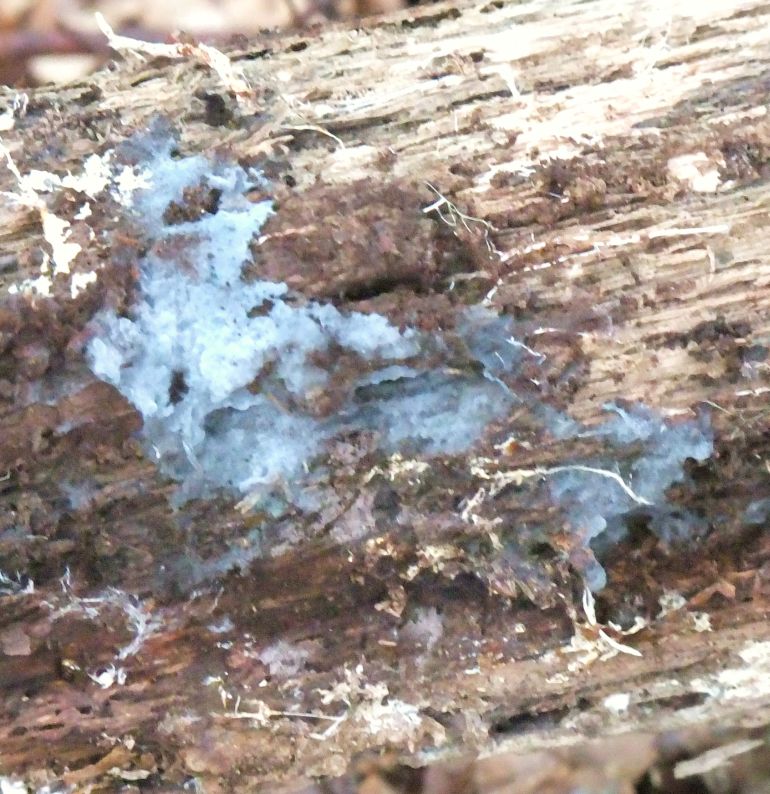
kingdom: Fungi
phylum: Basidiomycota
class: Agaricomycetes
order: Atheliales
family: Atheliaceae
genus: Byssocorticium
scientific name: Byssocorticium atrovirens
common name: blå førnehinde
